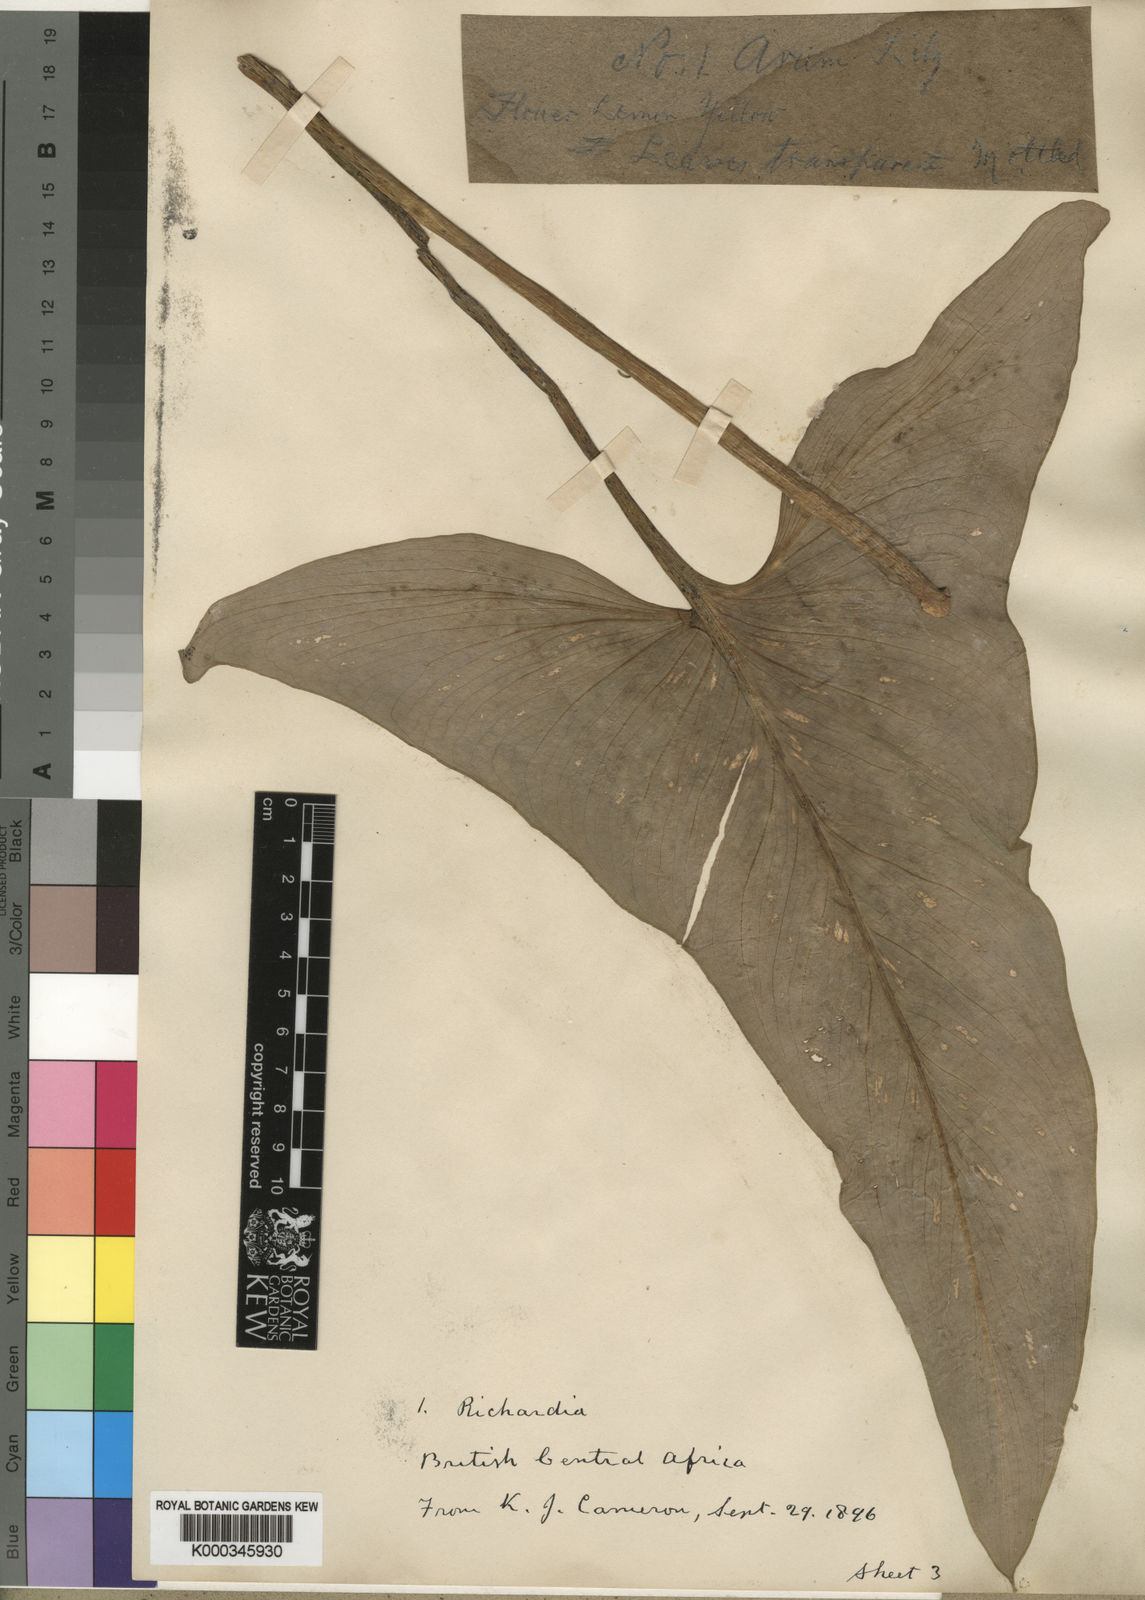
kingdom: Plantae
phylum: Tracheophyta
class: Liliopsida
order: Alismatales
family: Araceae
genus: Zantedeschia
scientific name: Zantedeschia albomaculata
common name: Spotted calla lily
